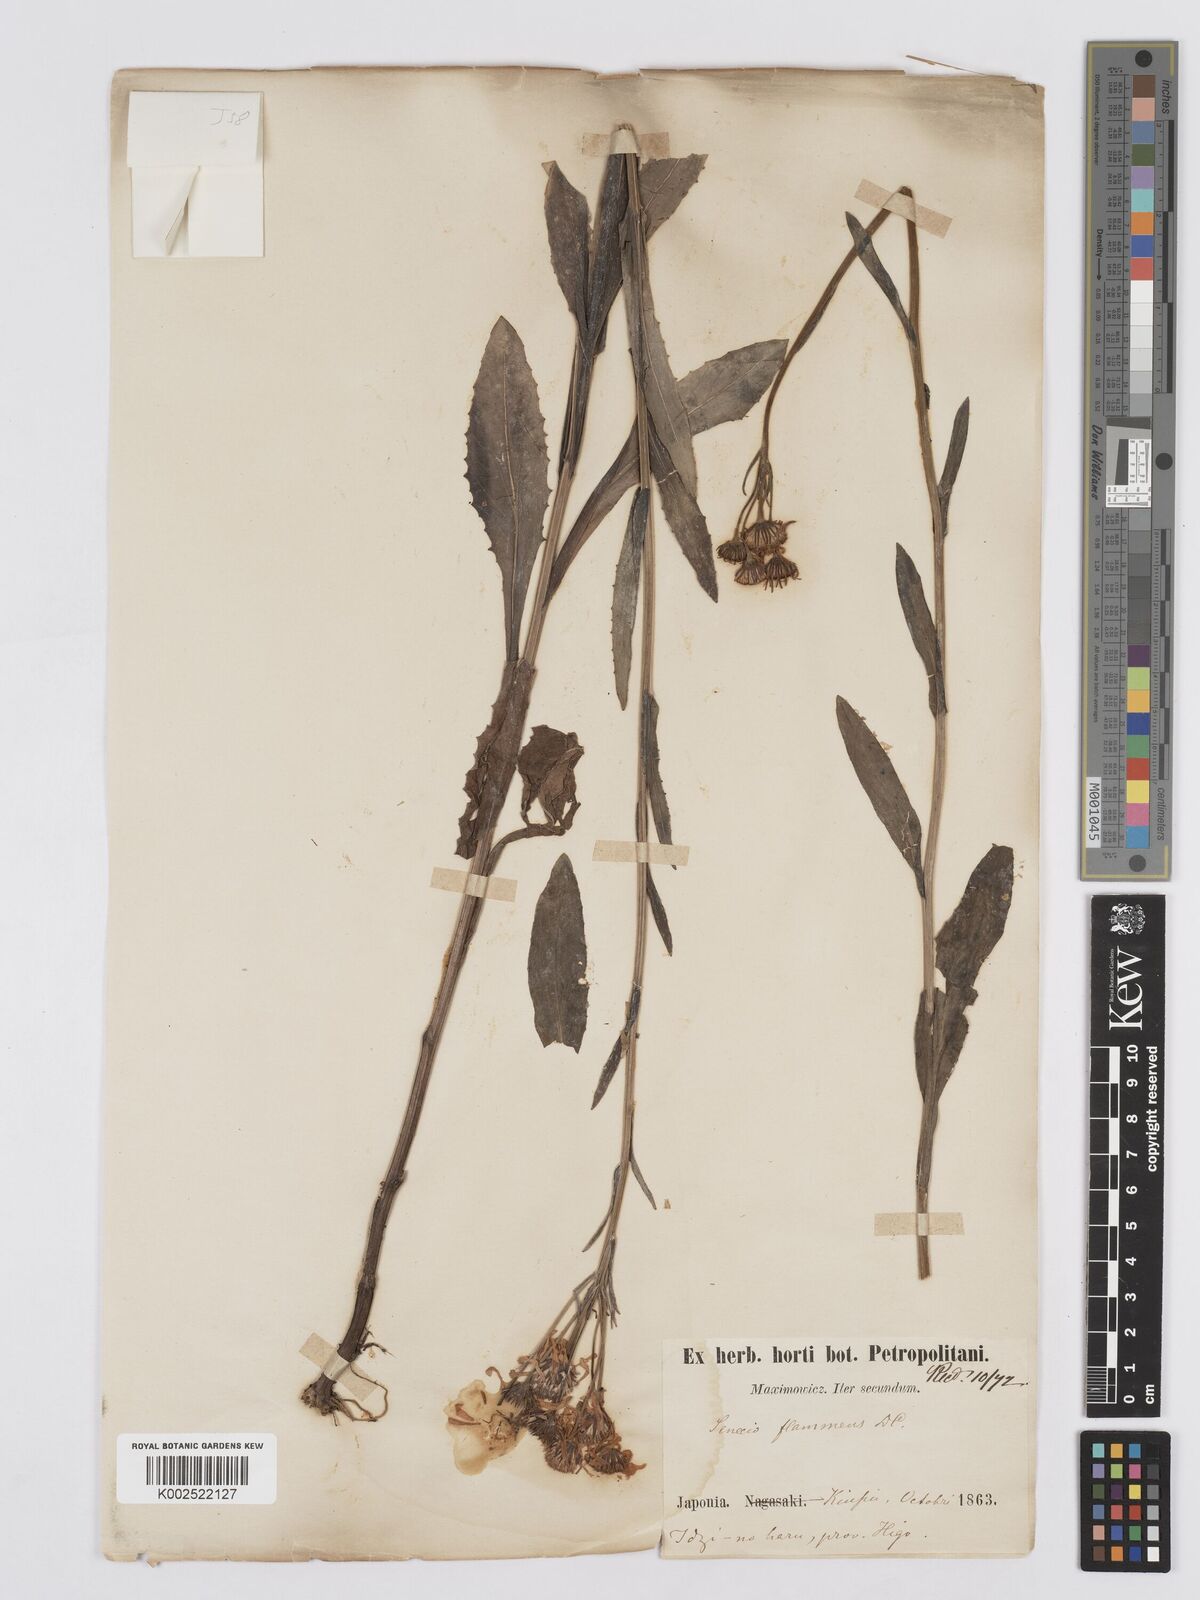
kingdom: Plantae
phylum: Tracheophyta
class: Magnoliopsida
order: Asterales
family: Asteraceae
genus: Tephroseris
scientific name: Tephroseris flammea
